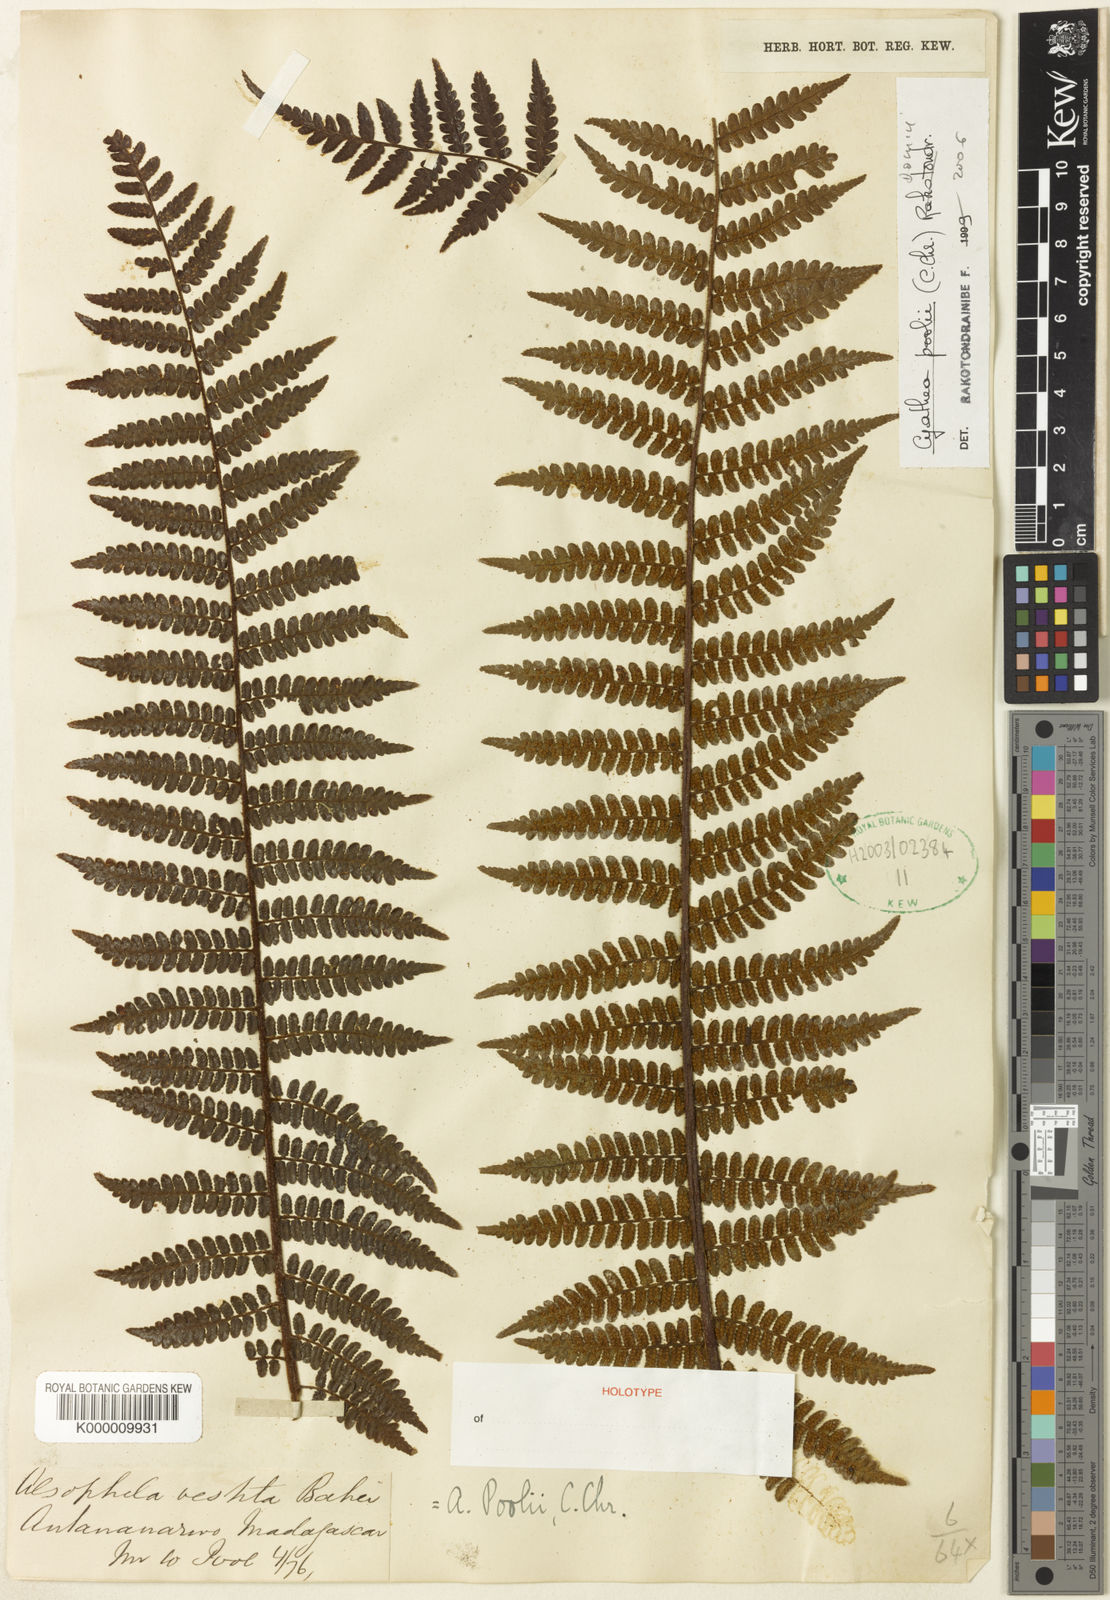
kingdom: Plantae
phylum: Tracheophyta
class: Polypodiopsida
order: Cyatheales
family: Cyatheaceae
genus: Gymnosphaera
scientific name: Gymnosphaera poolii
